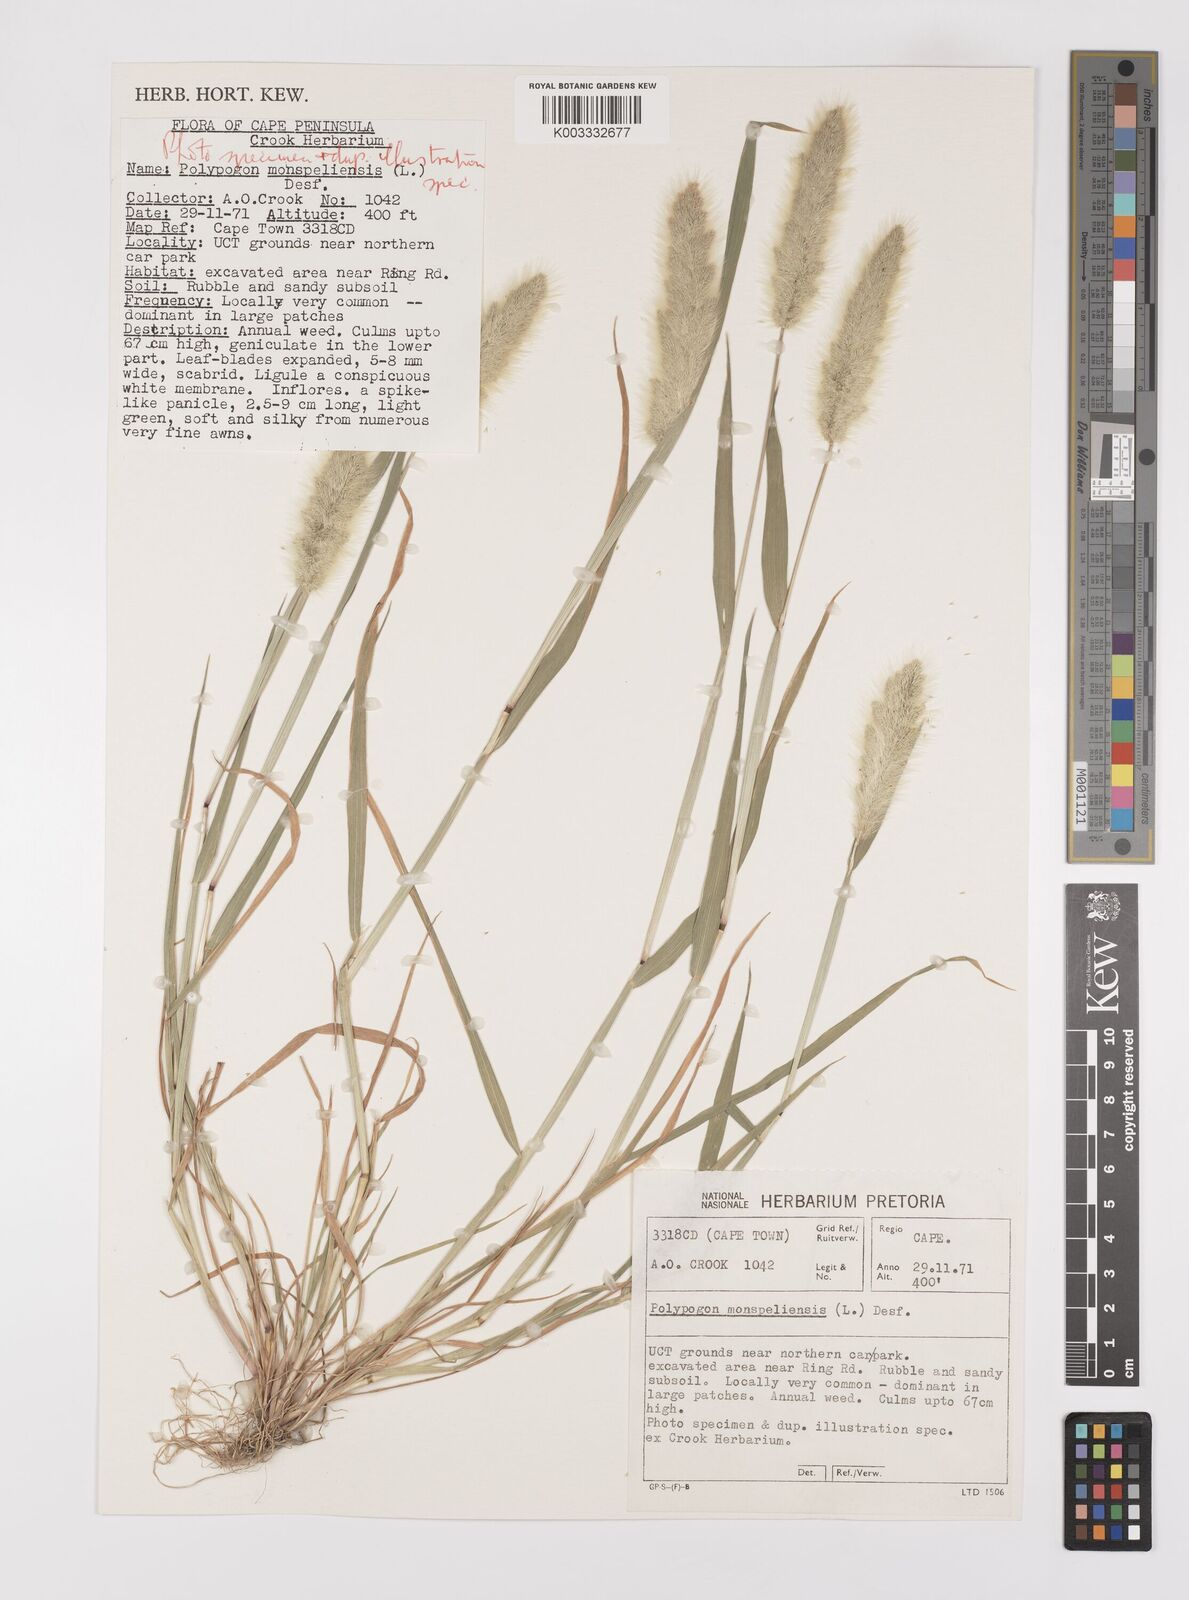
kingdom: Plantae
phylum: Tracheophyta
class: Liliopsida
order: Poales
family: Poaceae
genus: Polypogon
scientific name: Polypogon monspeliensis
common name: Annual rabbitsfoot grass
